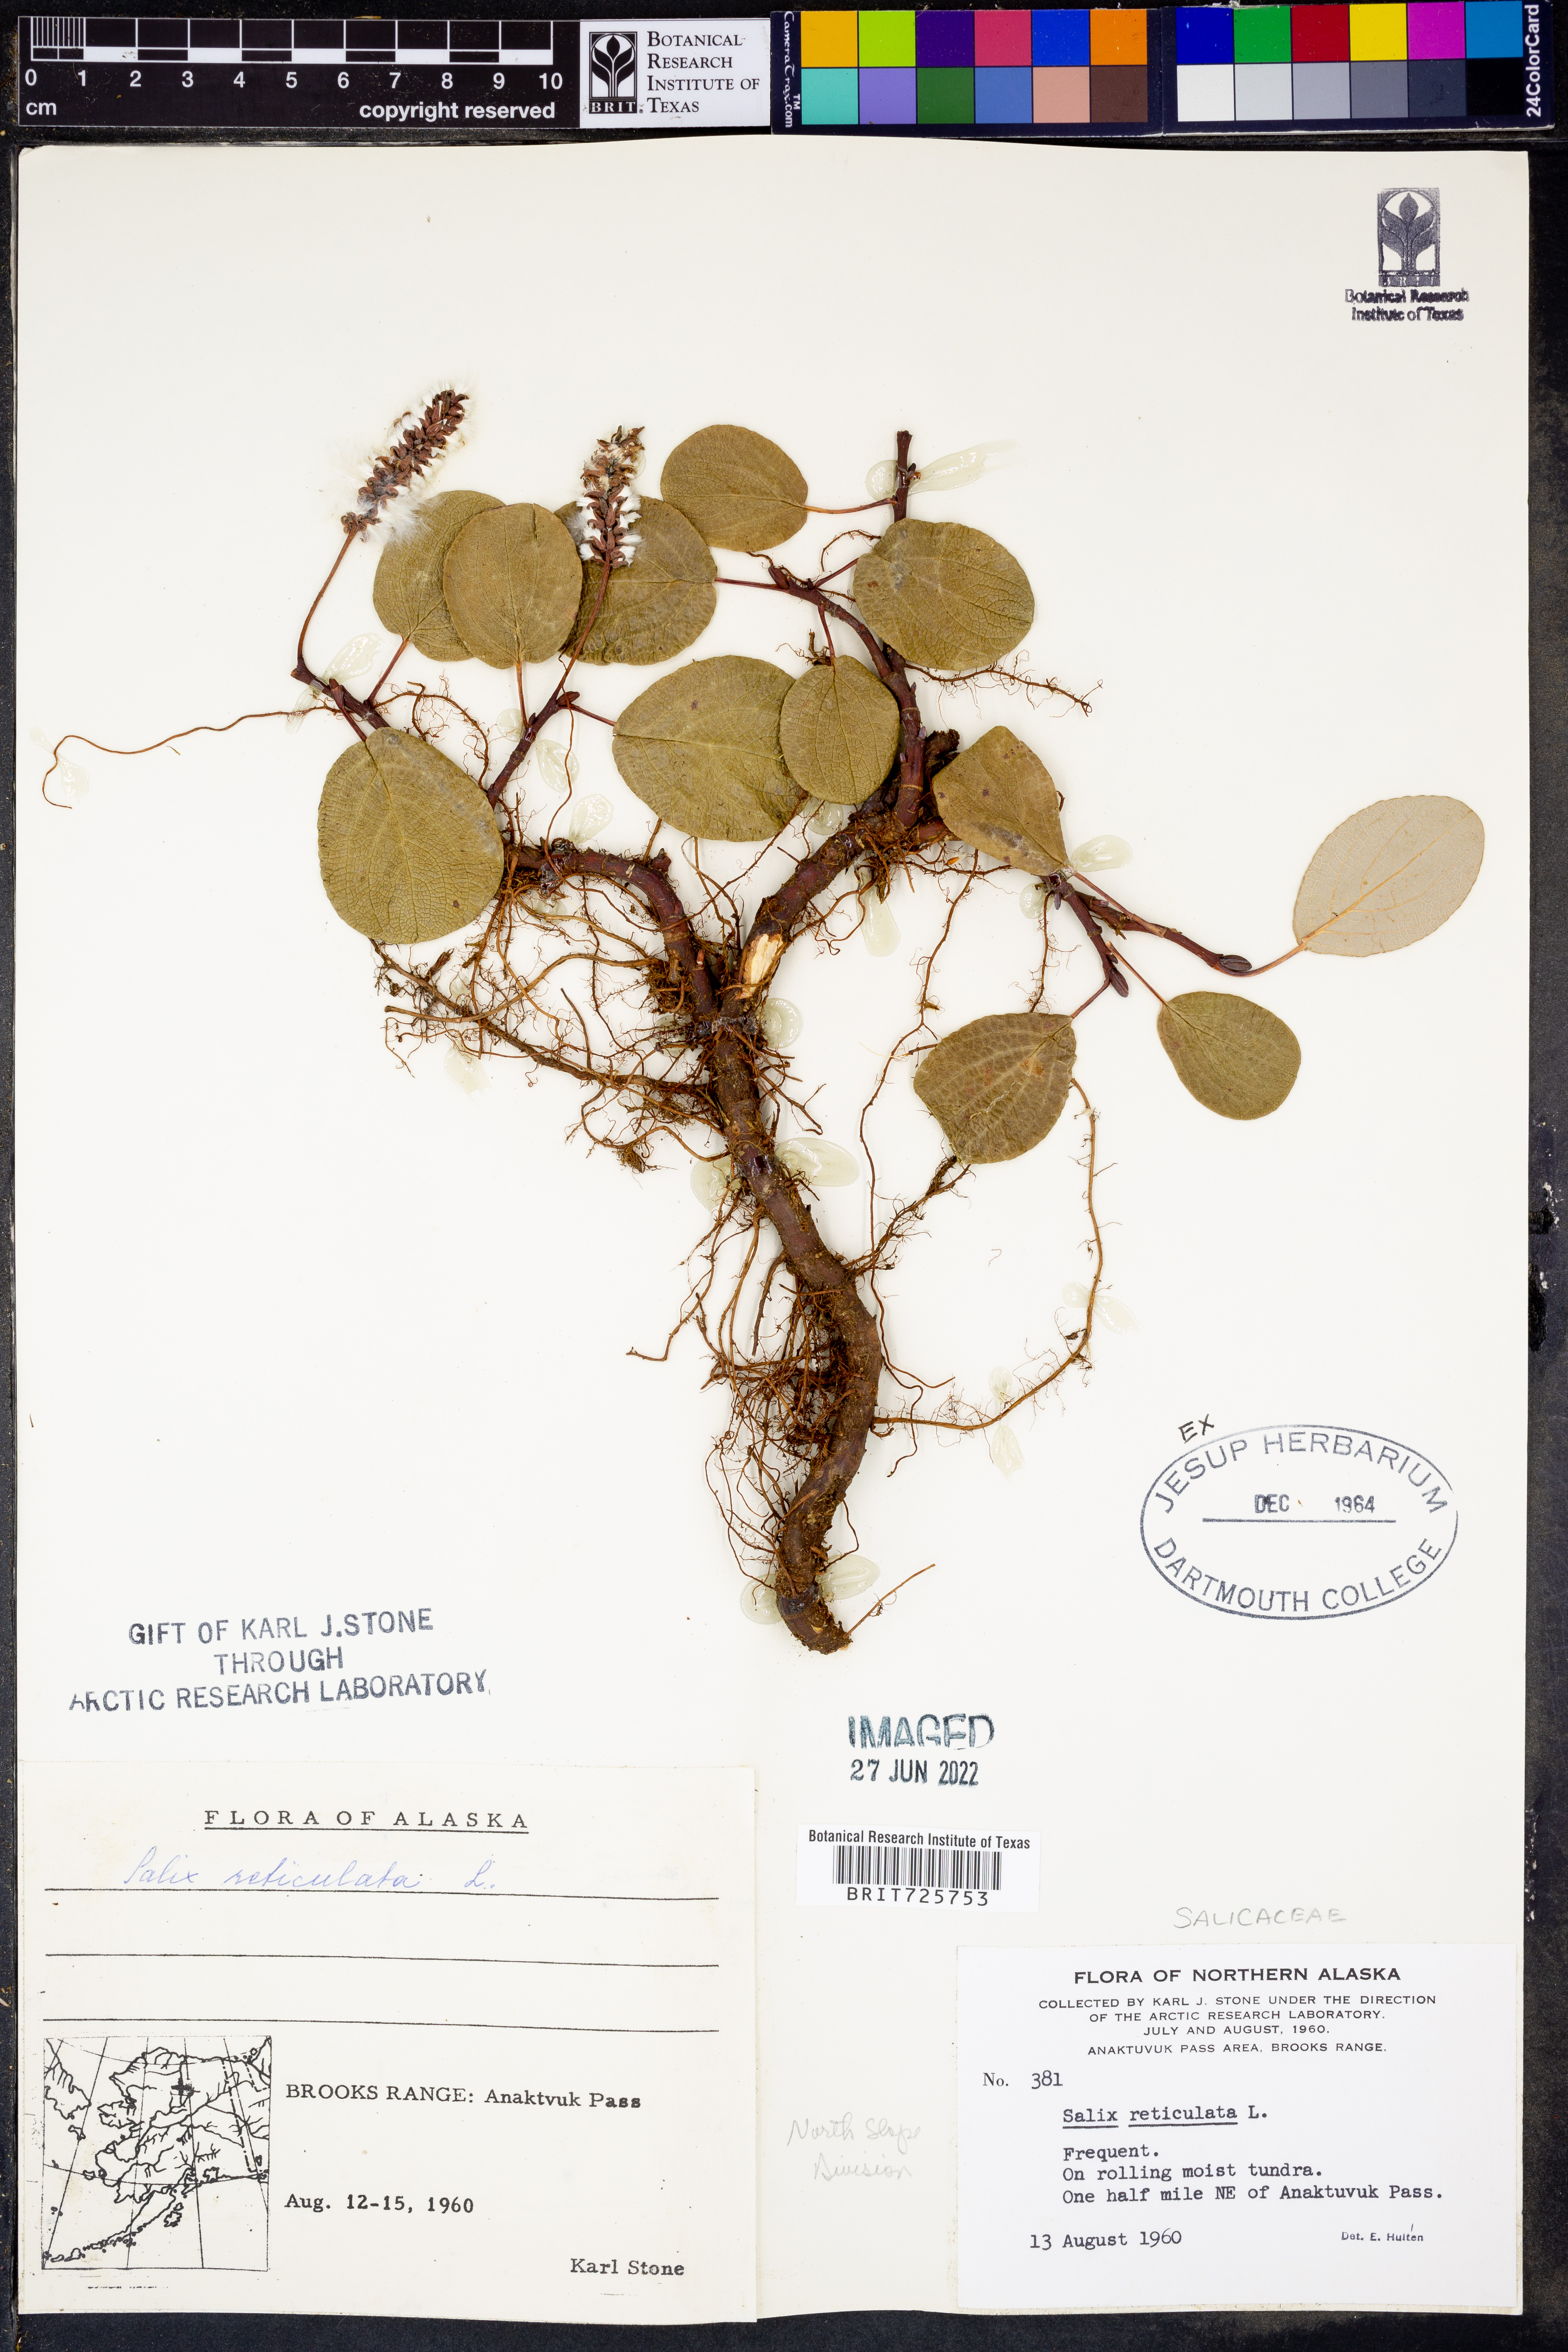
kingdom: Plantae
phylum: Tracheophyta
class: Magnoliopsida
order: Malpighiales
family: Salicaceae
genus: Salix
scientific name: Salix
